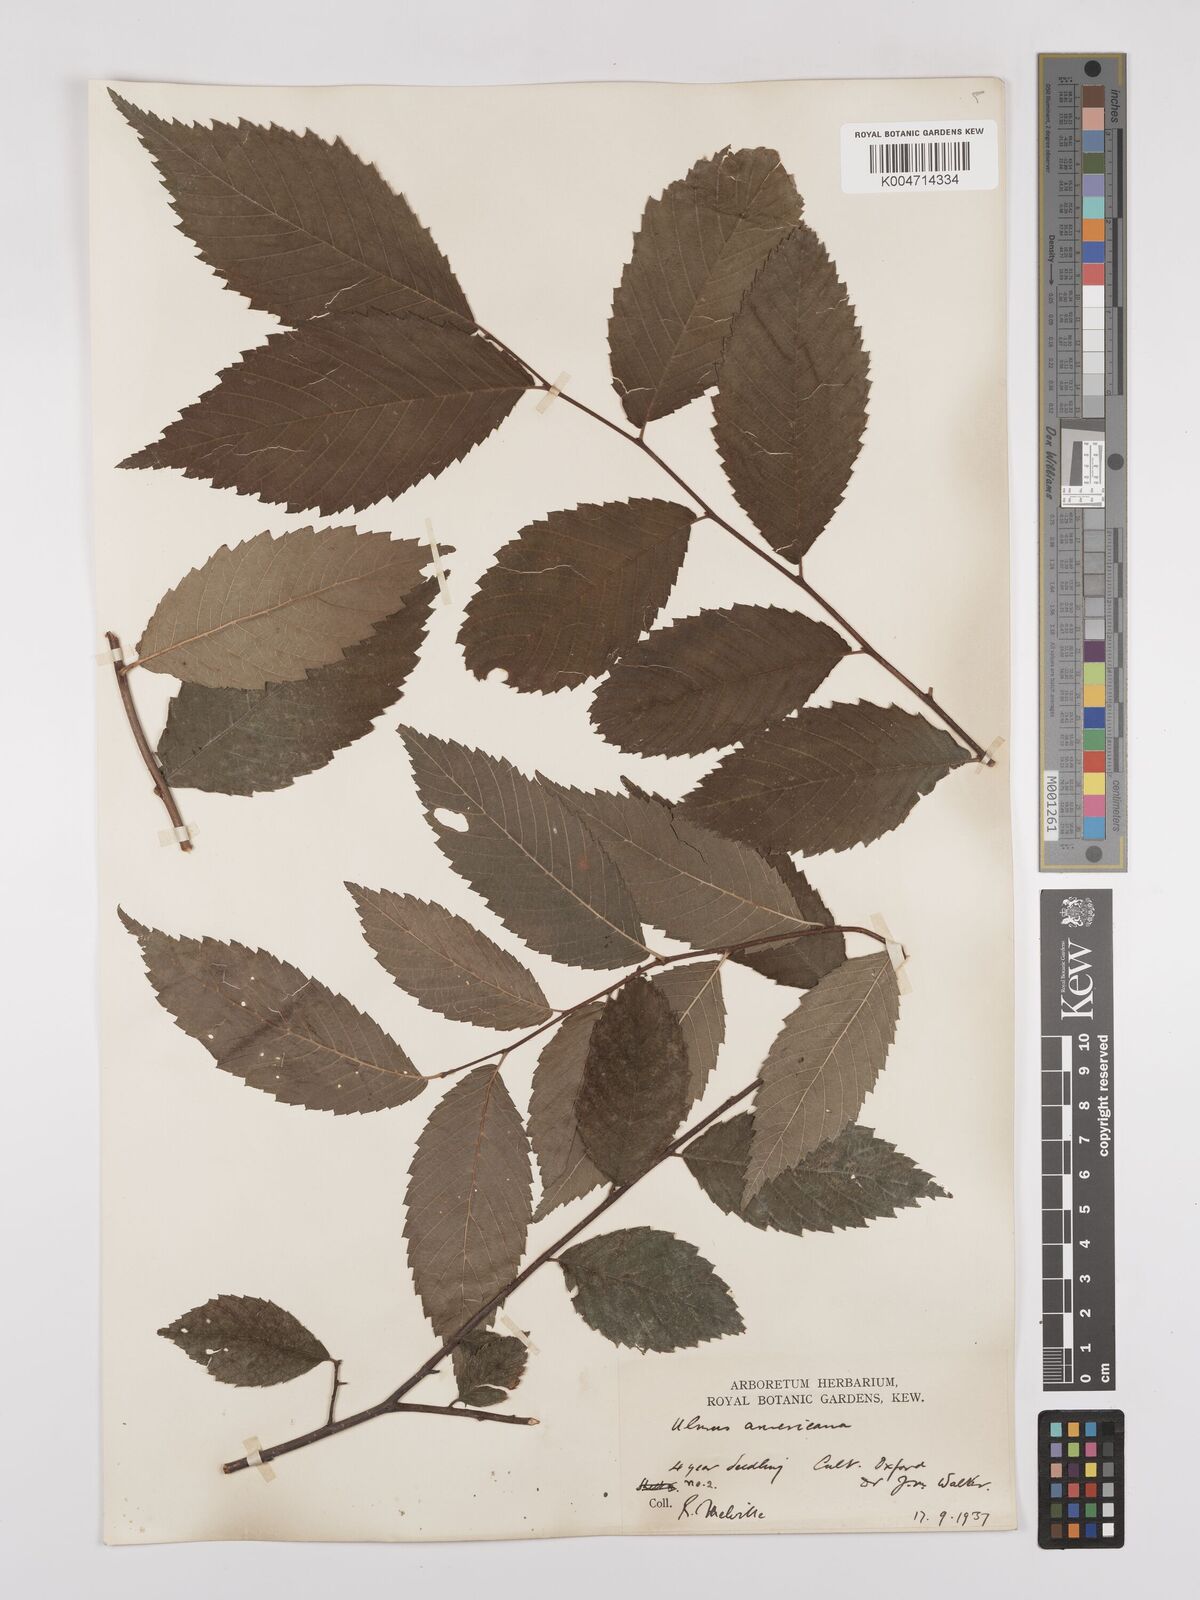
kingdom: Plantae
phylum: Tracheophyta
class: Magnoliopsida
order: Rosales
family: Ulmaceae
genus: Ulmus
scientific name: Ulmus americana
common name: American elm
